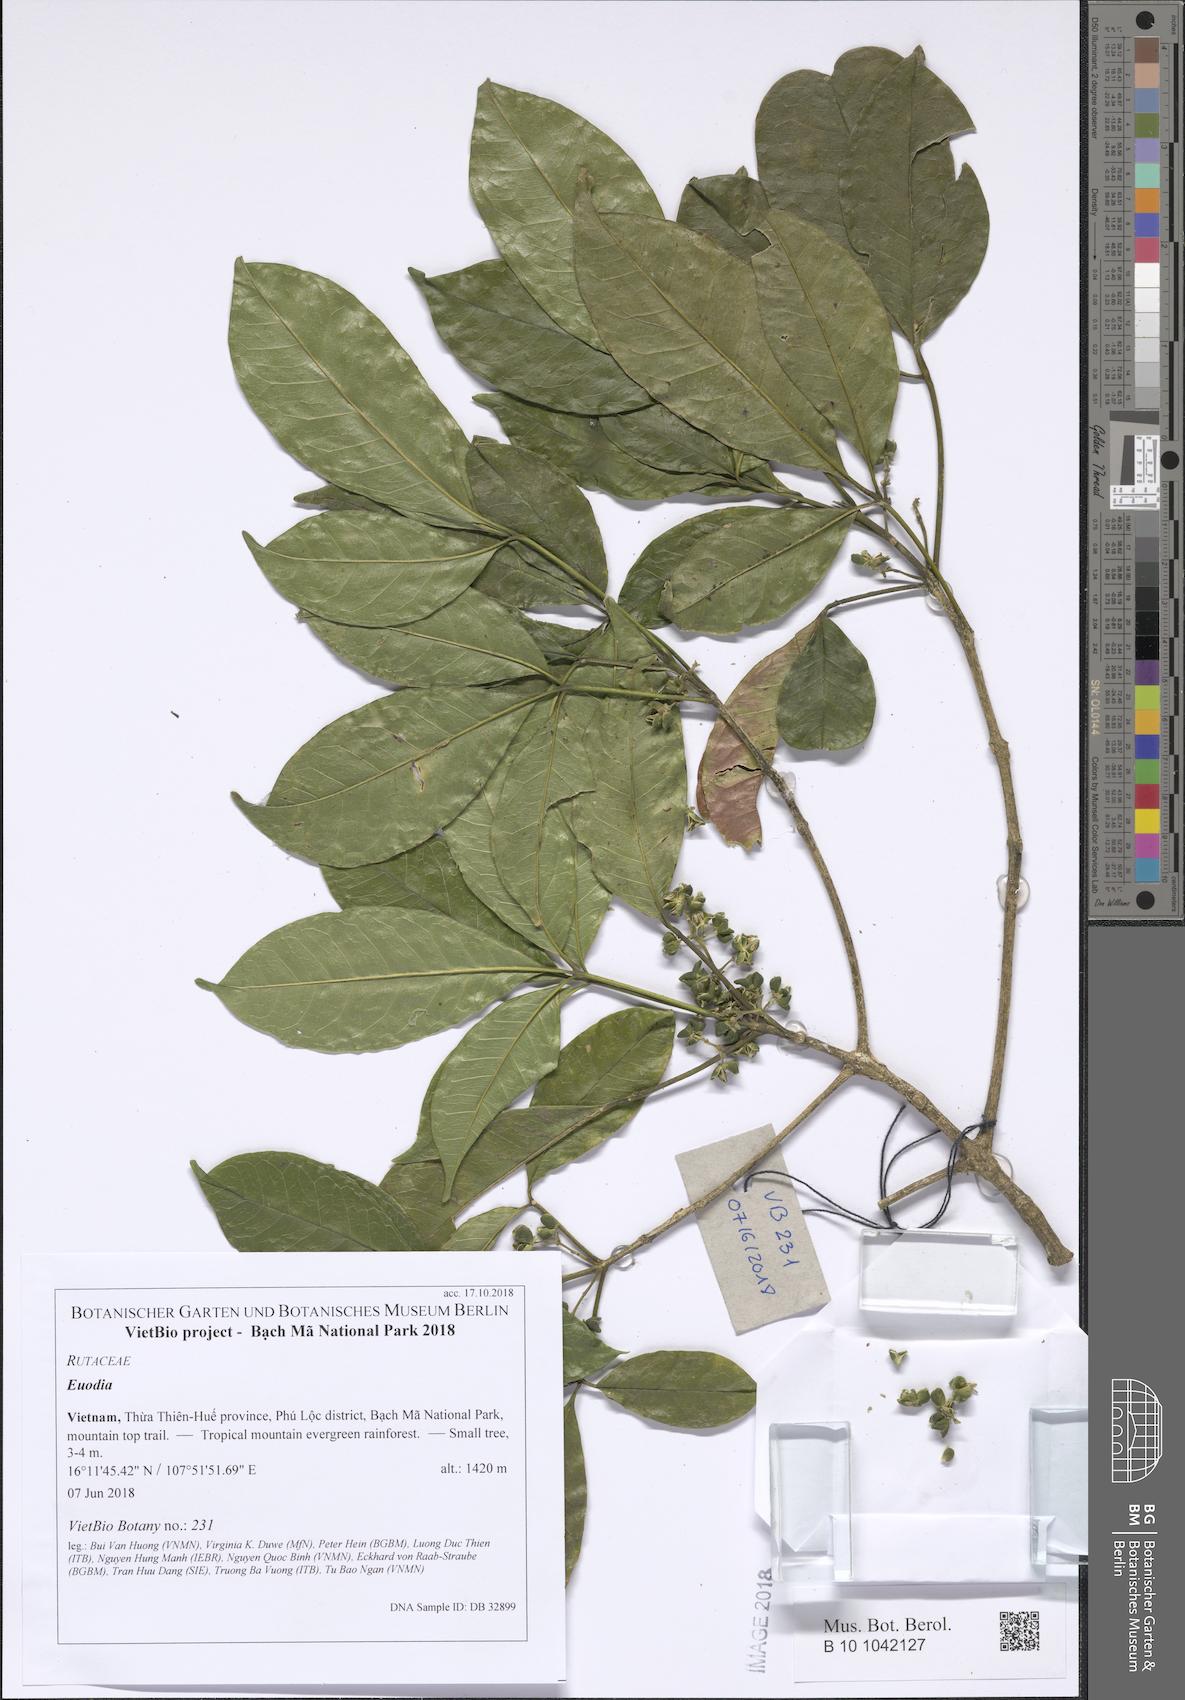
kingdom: Plantae
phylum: Tracheophyta
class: Magnoliopsida
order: Sapindales
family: Rutaceae
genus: Euodia
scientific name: Euodia
